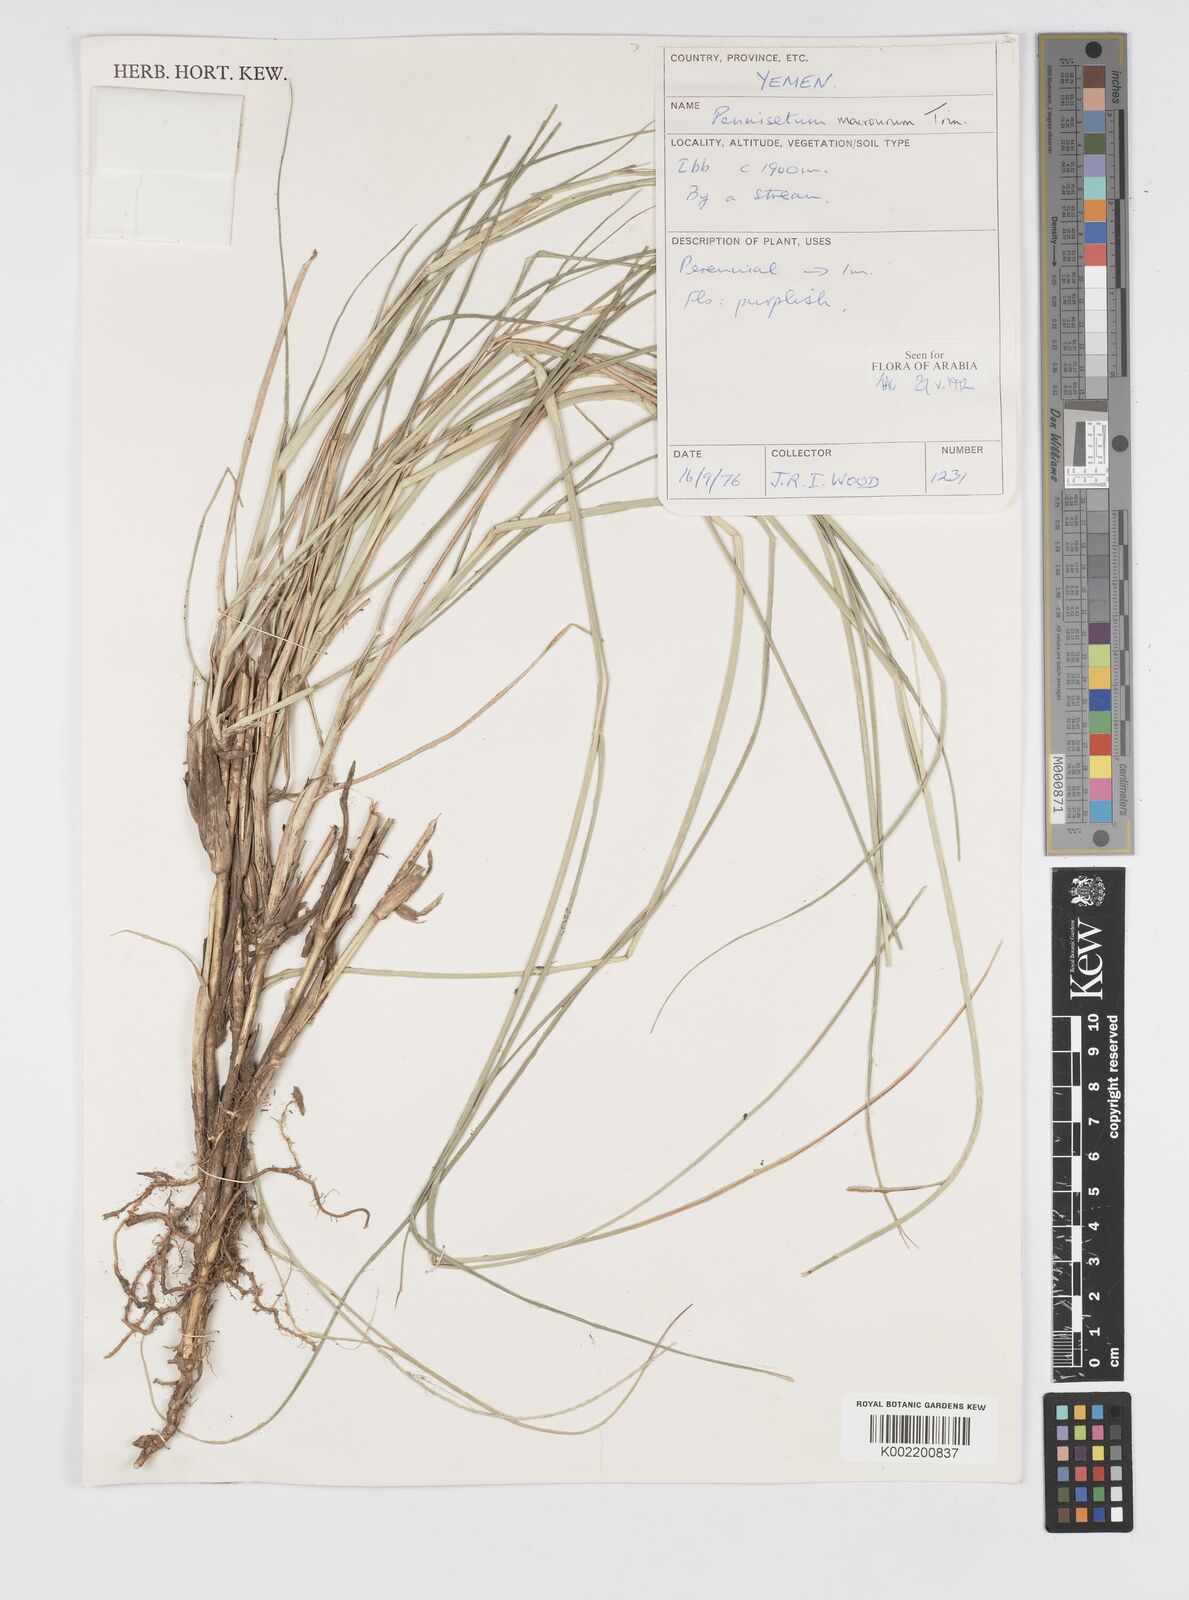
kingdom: Plantae
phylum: Tracheophyta
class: Liliopsida
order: Poales
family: Poaceae
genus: Cenchrus
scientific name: Cenchrus caudatus
